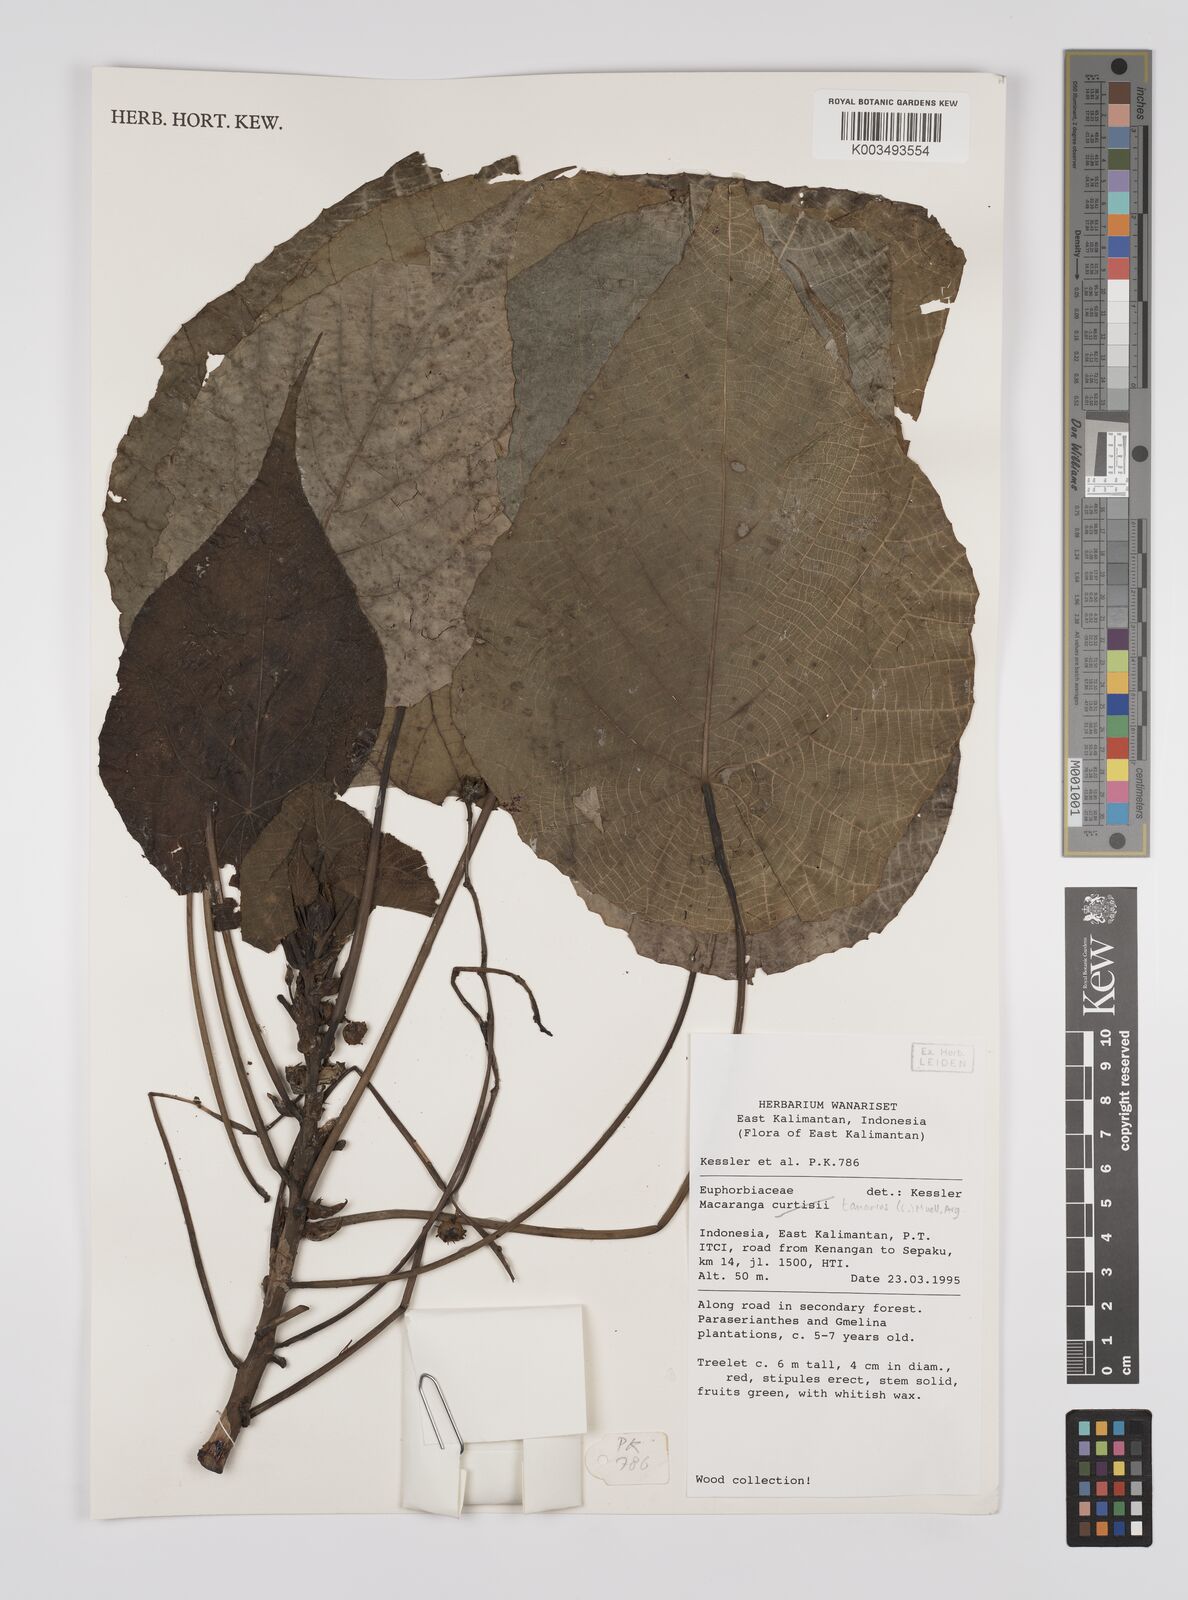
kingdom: Plantae
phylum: Tracheophyta
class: Magnoliopsida
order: Malpighiales
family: Euphorbiaceae
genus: Macaranga
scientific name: Macaranga tanarius
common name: Parasol leaf tree
